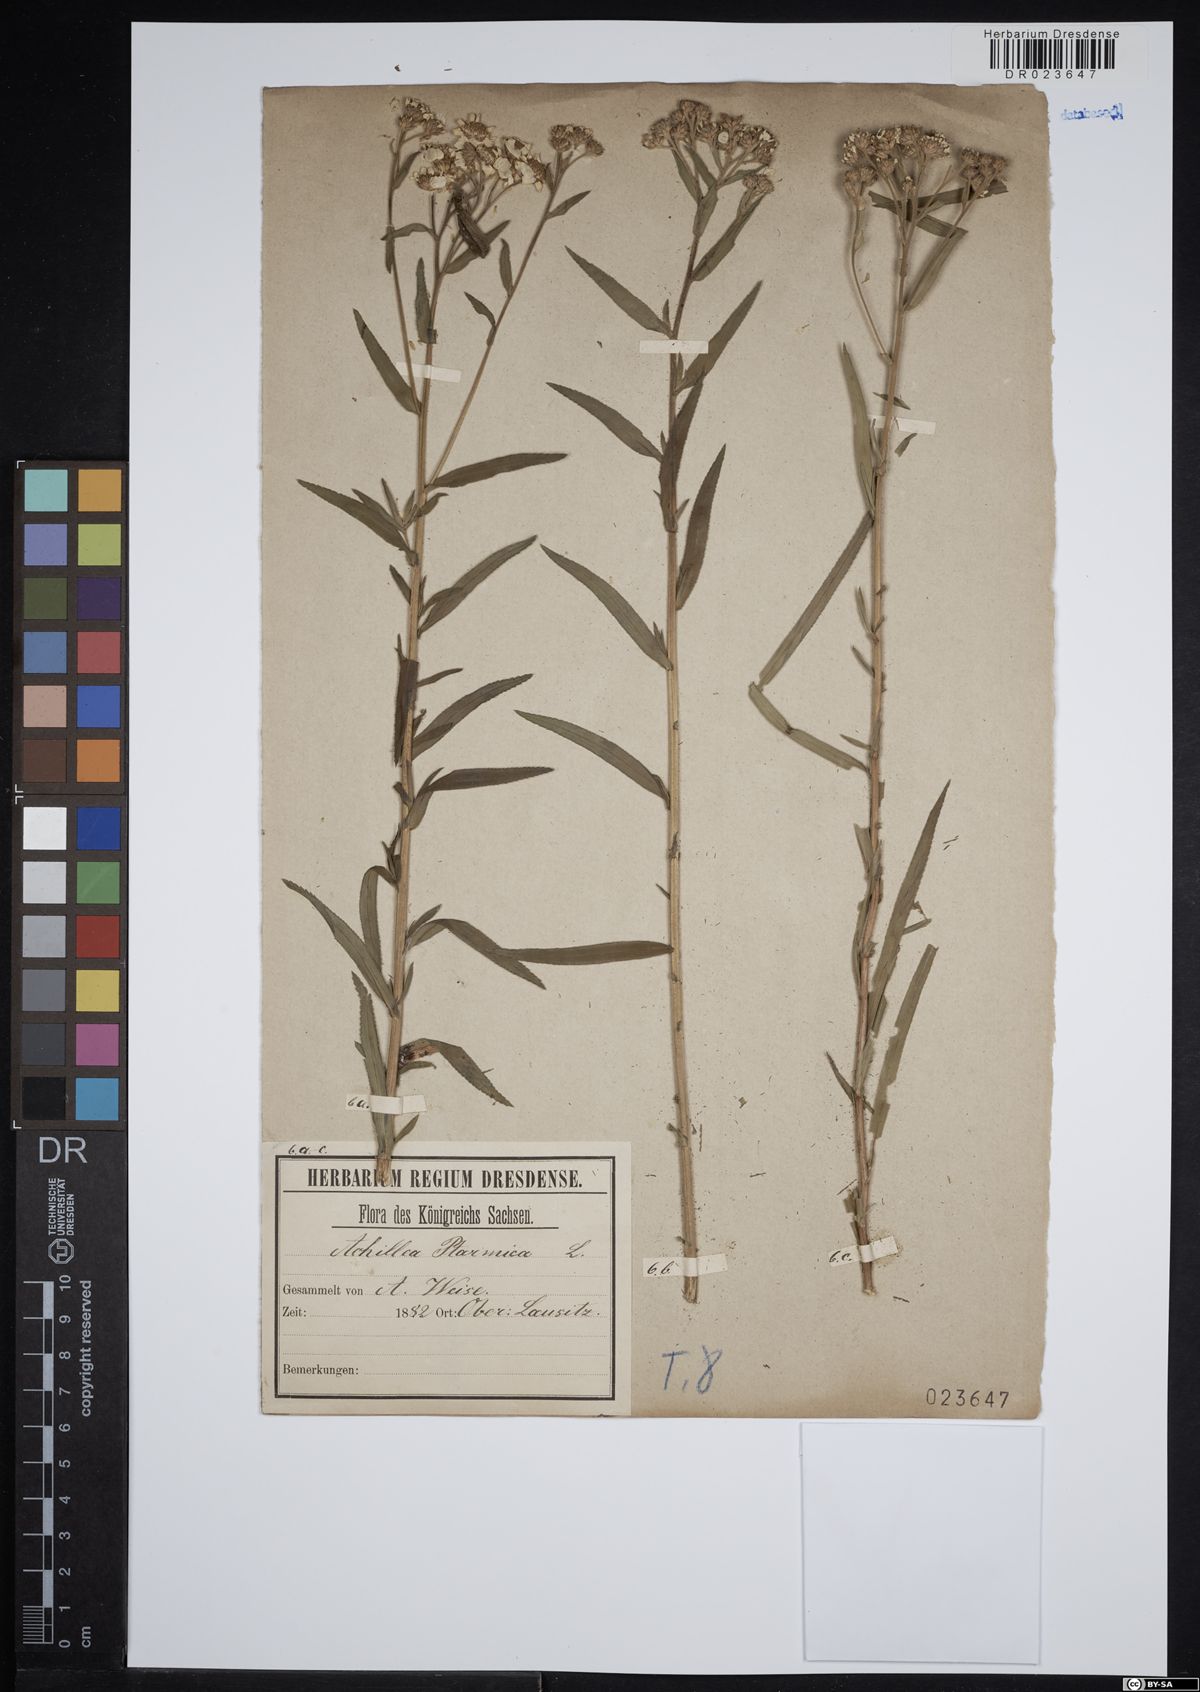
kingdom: Plantae
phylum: Tracheophyta
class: Magnoliopsida
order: Asterales
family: Asteraceae
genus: Achillea
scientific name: Achillea ptarmica
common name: Sneezeweed
